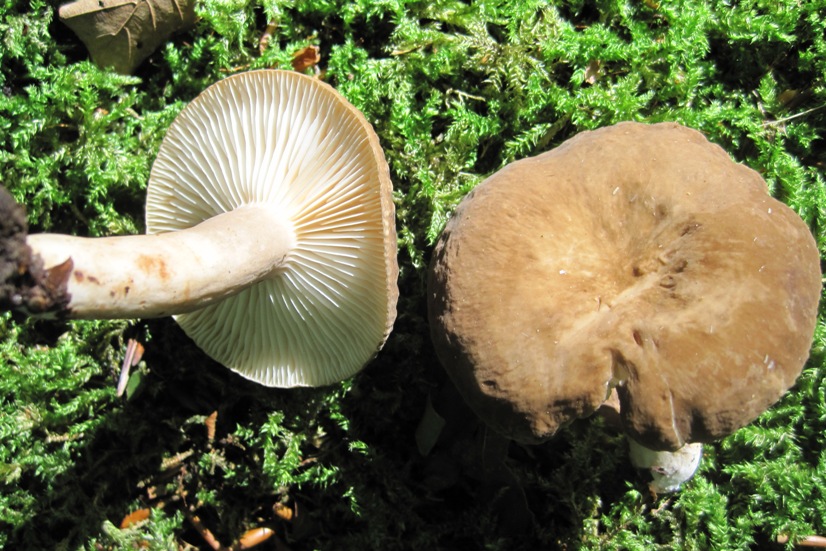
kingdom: Fungi
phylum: Basidiomycota
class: Agaricomycetes
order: Russulales
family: Russulaceae
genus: Lactarius
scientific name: Lactarius romagnesii
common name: fjernbladet mælkehat
